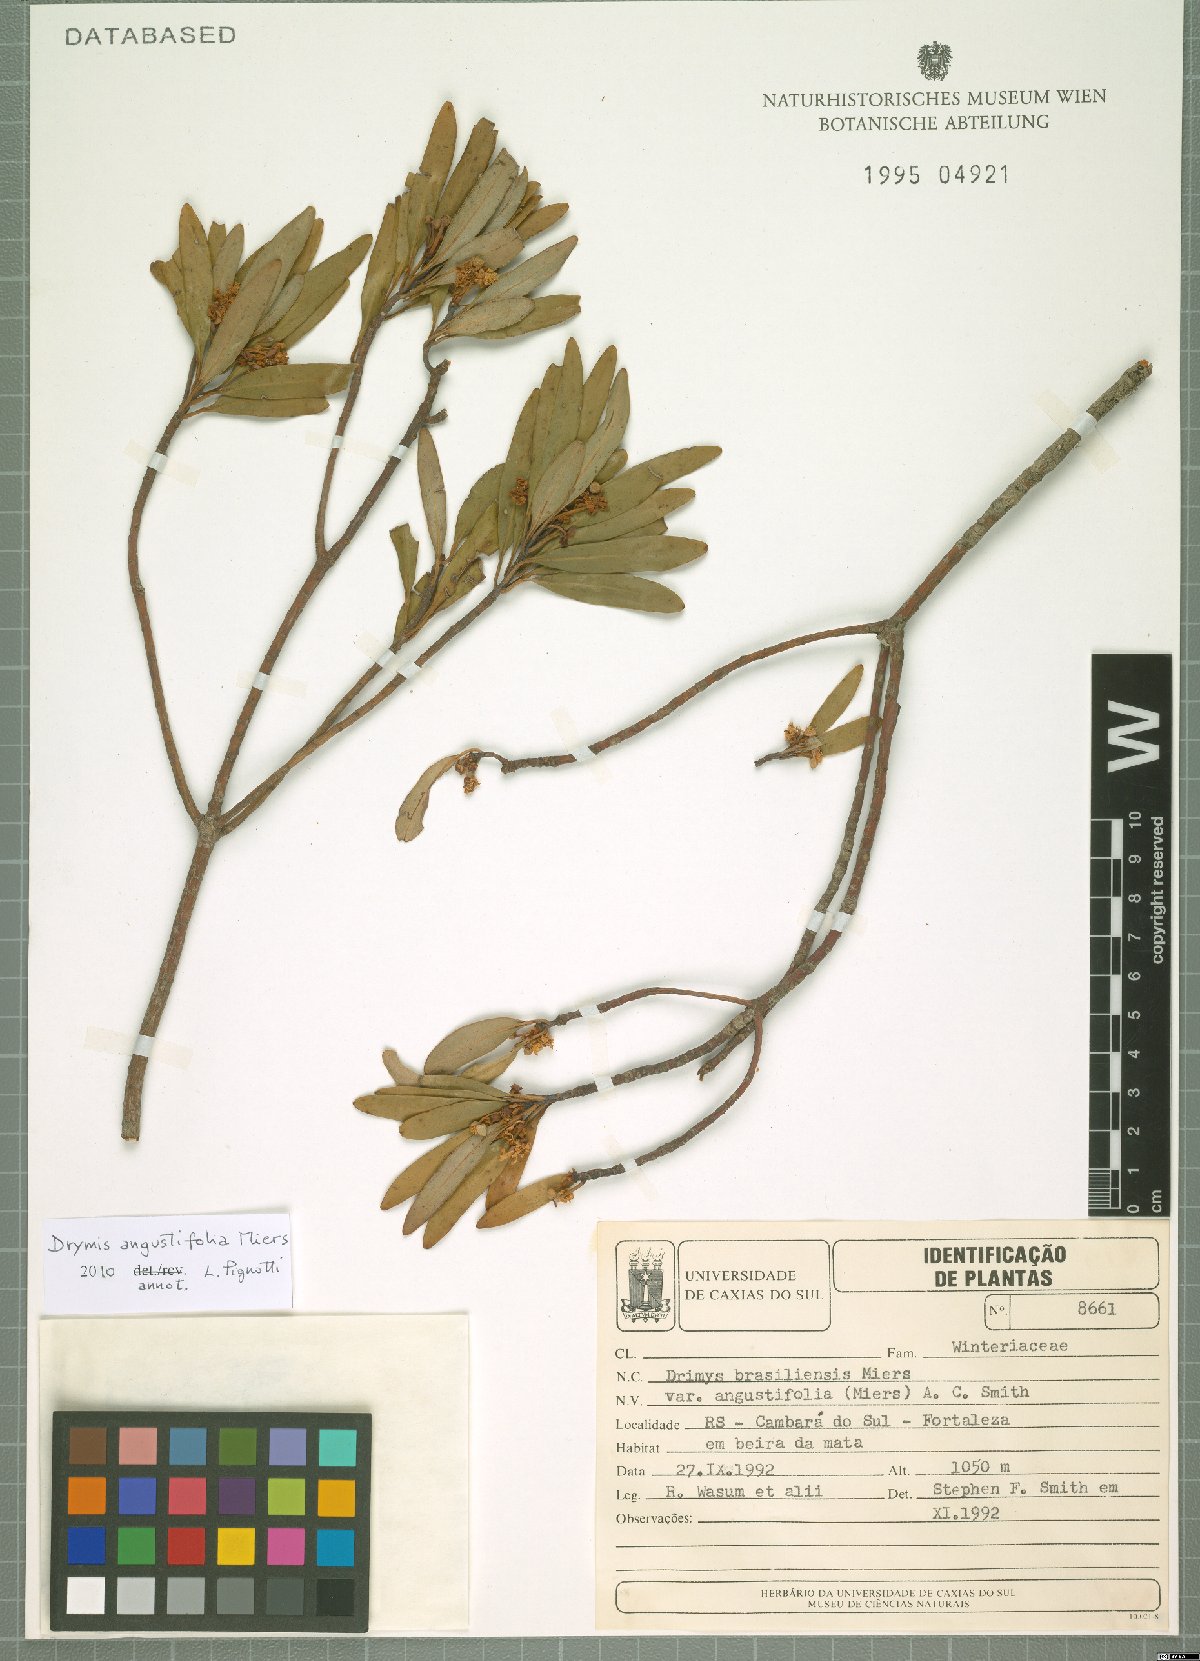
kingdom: Plantae
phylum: Tracheophyta
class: Magnoliopsida
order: Canellales
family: Winteraceae
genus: Drimys
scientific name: Drimys angustifolia
